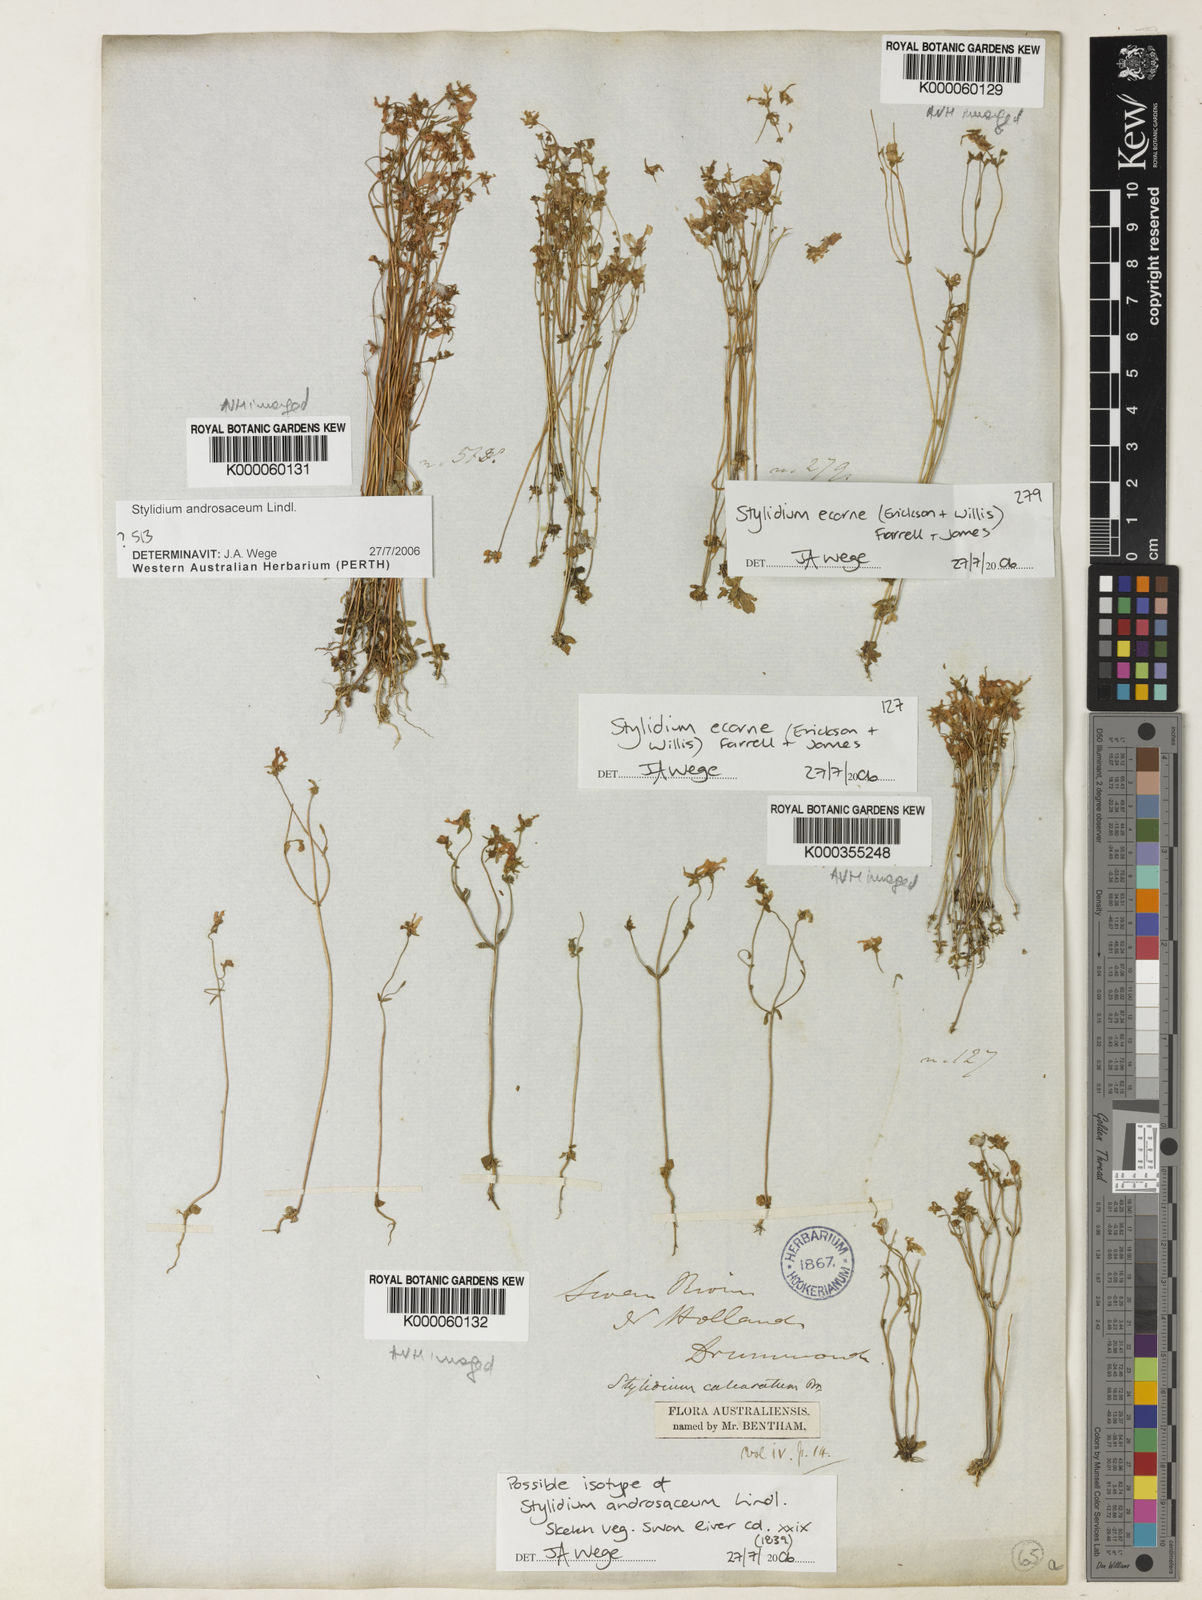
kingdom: Plantae
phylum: Tracheophyta
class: Magnoliopsida
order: Asterales
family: Stylidiaceae
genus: Stylidium
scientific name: Stylidium androsaceum
